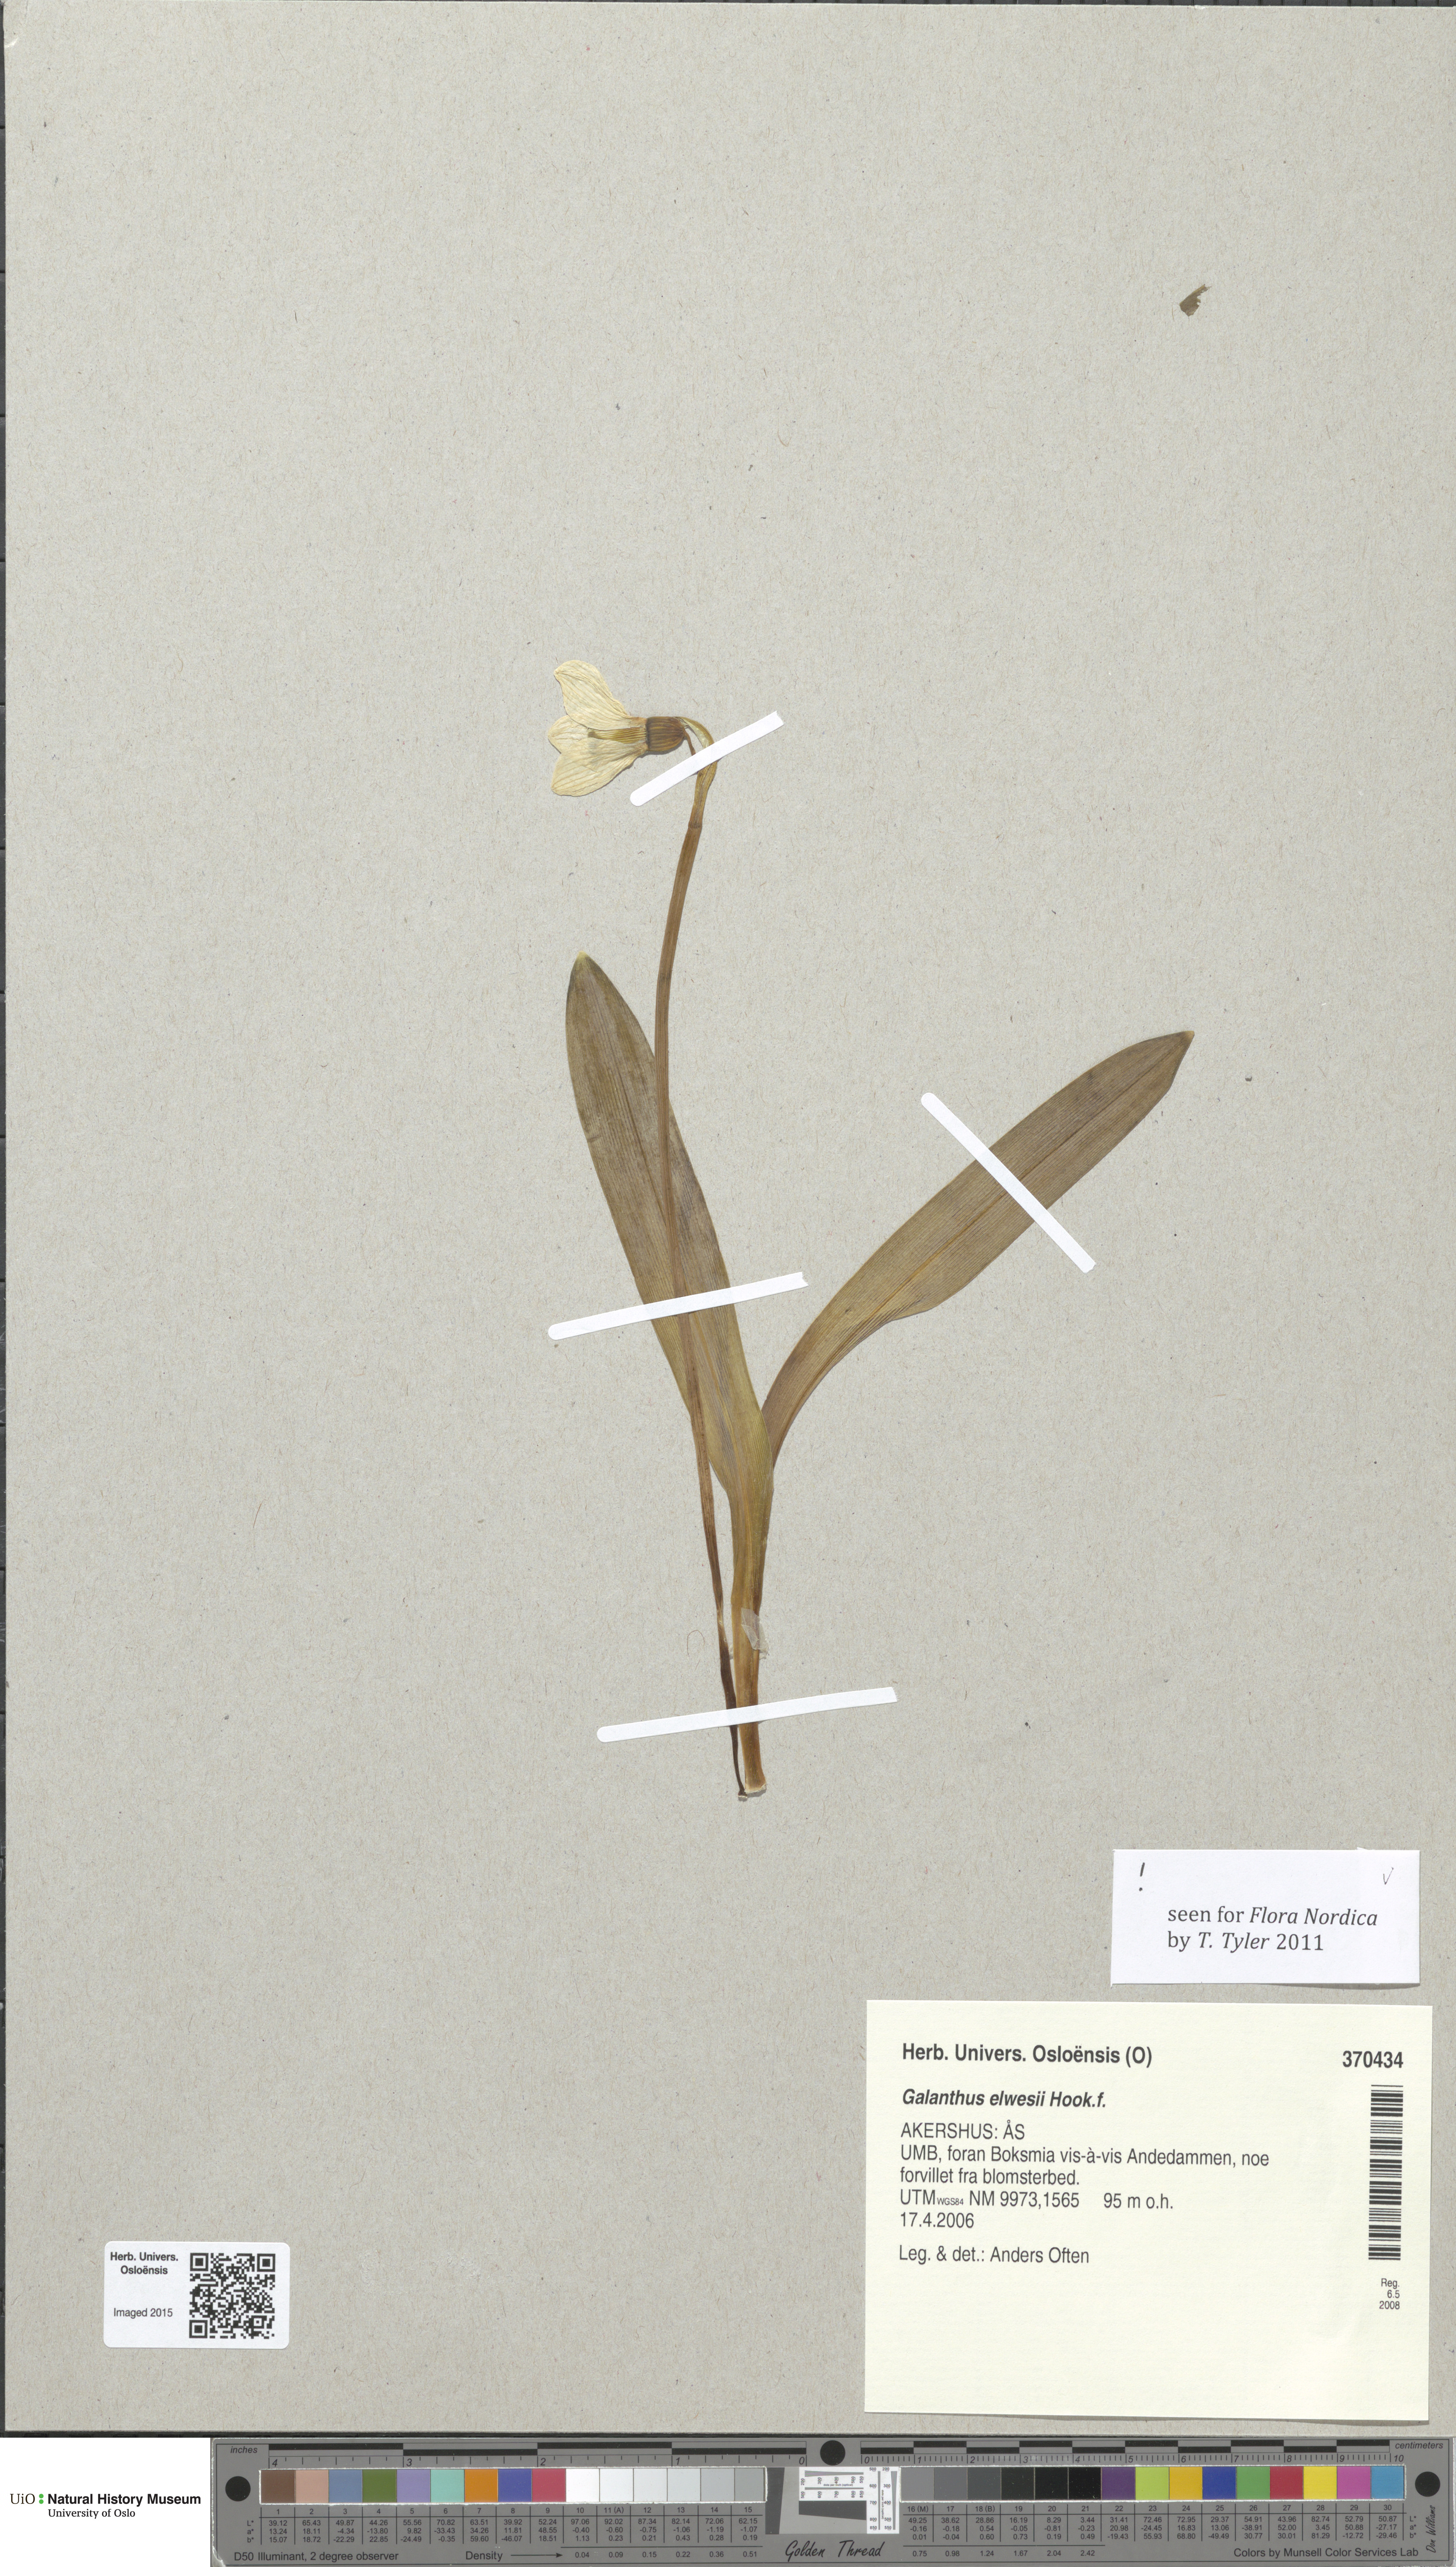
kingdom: Plantae
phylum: Tracheophyta
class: Liliopsida
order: Asparagales
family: Amaryllidaceae
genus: Galanthus
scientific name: Galanthus elwesii
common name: Greater snowdrop
